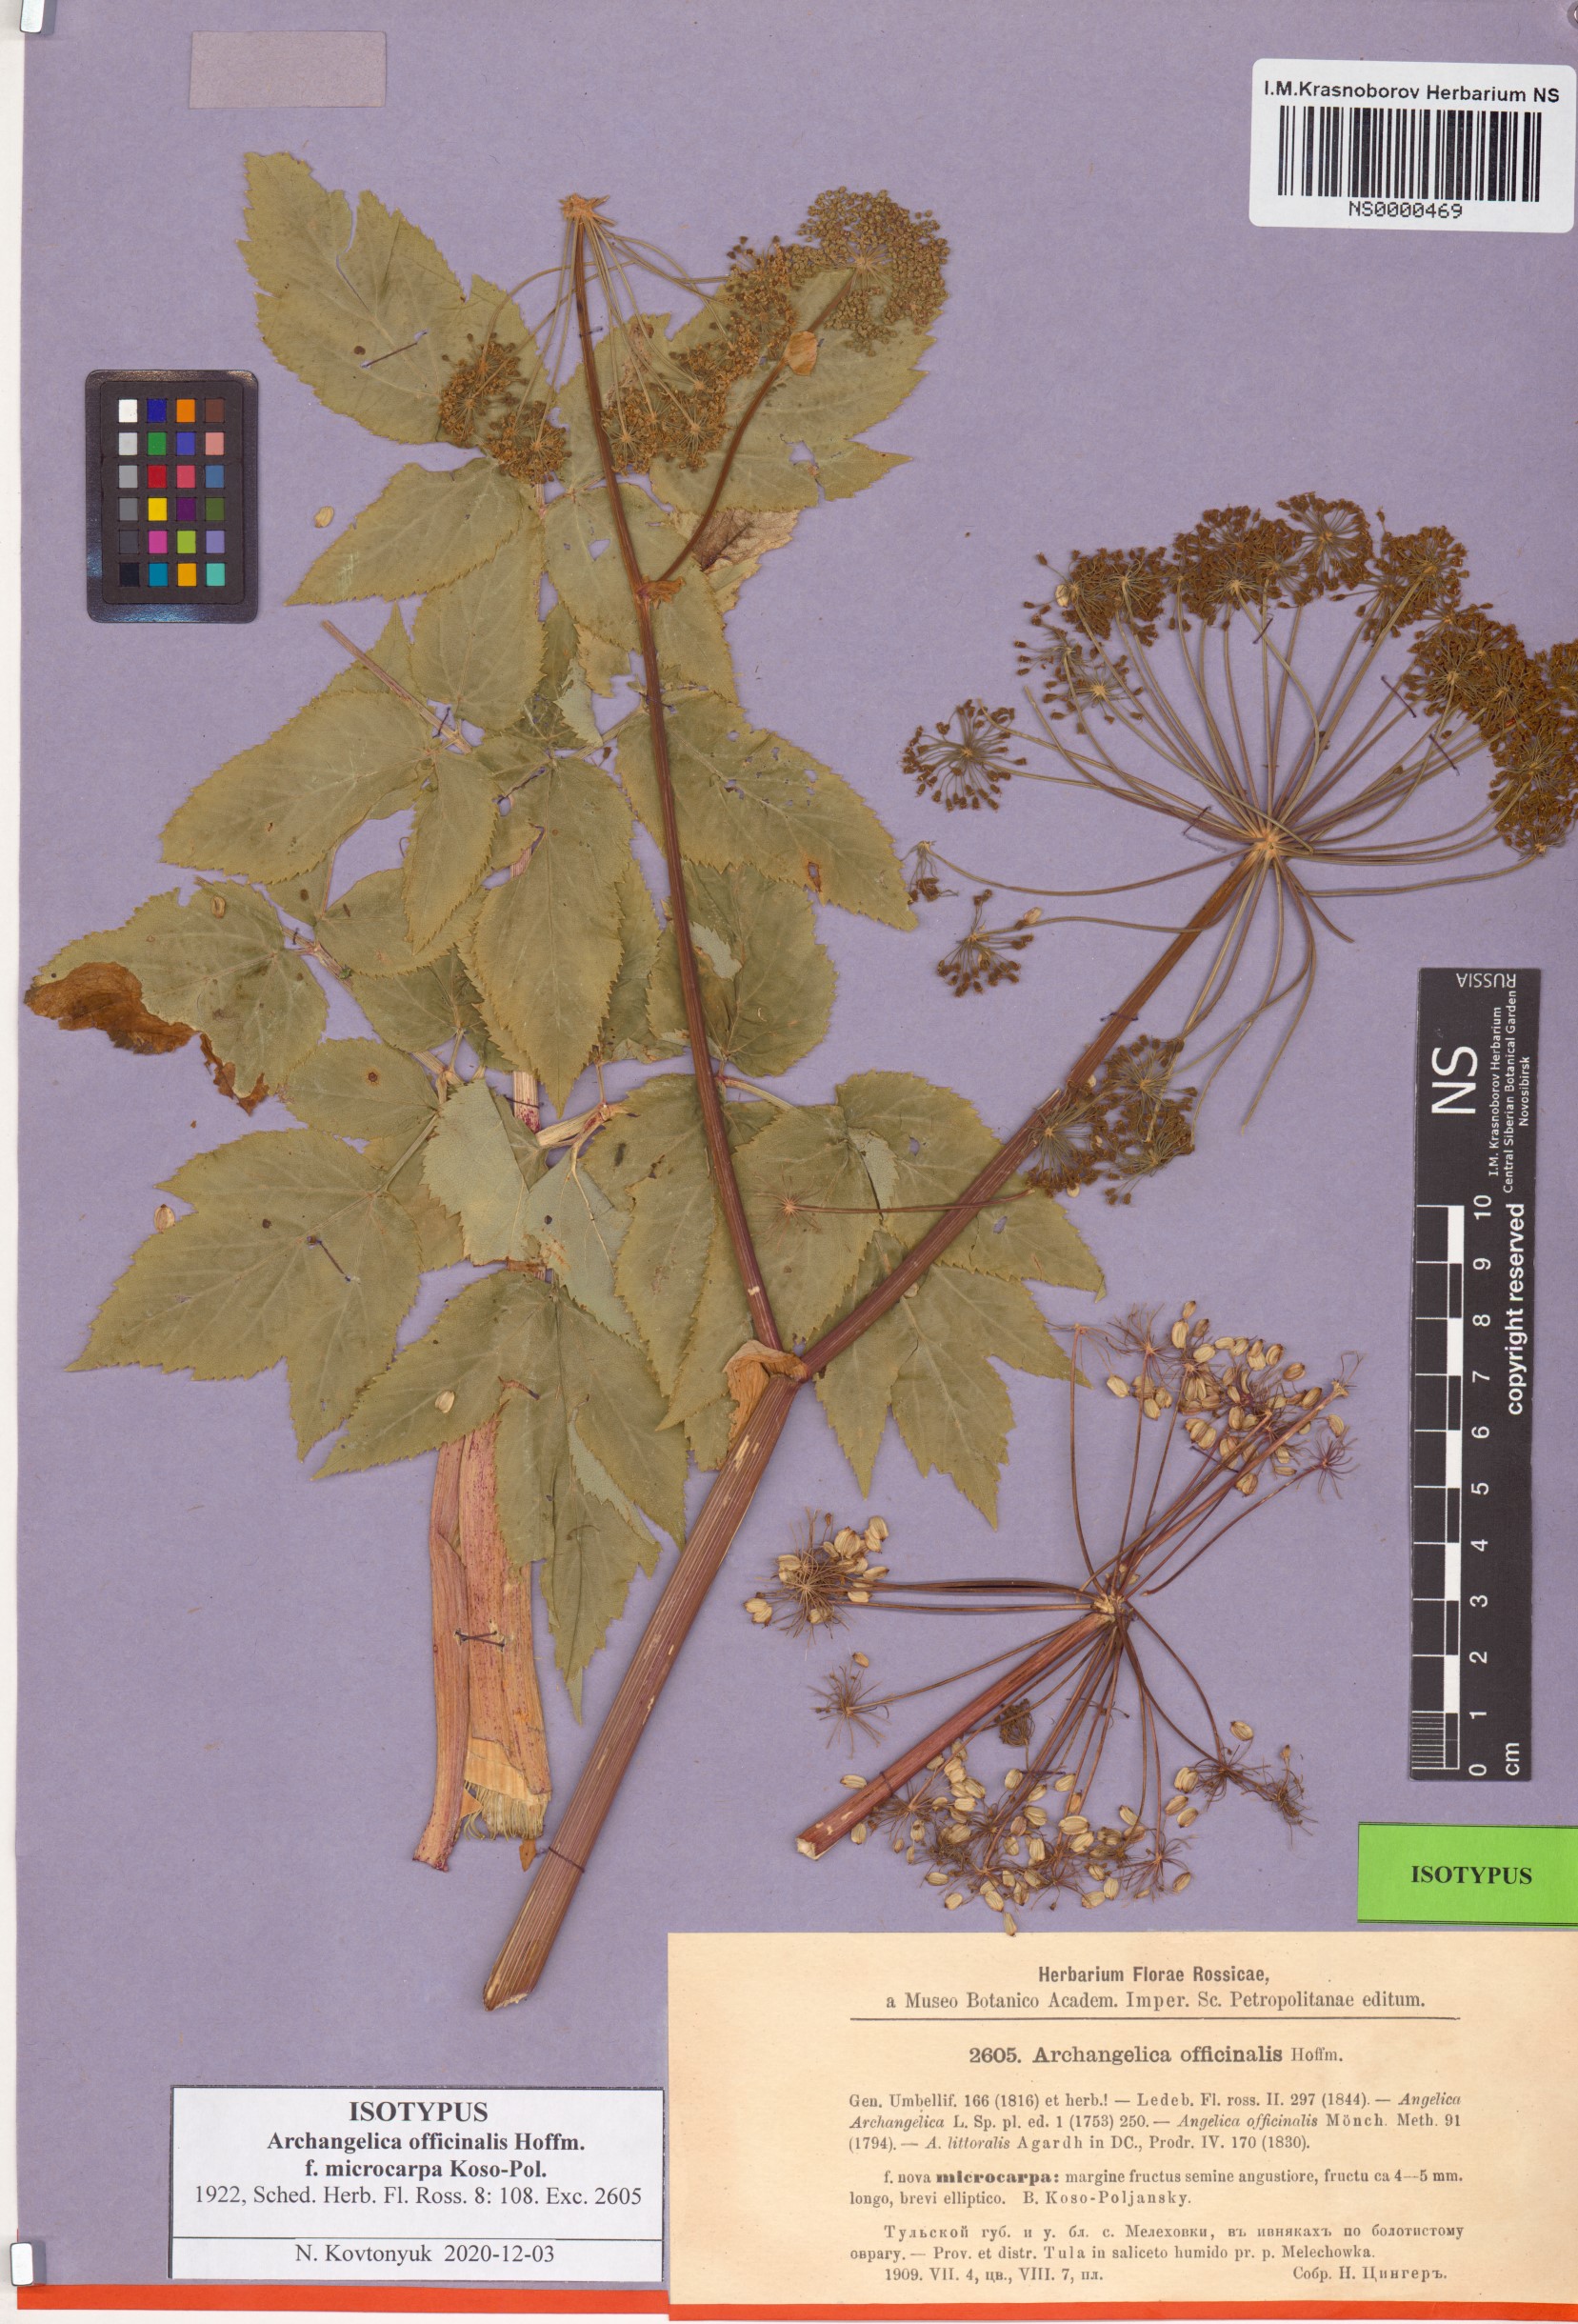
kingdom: Plantae
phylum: Tracheophyta
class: Magnoliopsida
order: Apiales
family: Apiaceae
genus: Angelica
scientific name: Angelica archangelica
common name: Garden angelica
